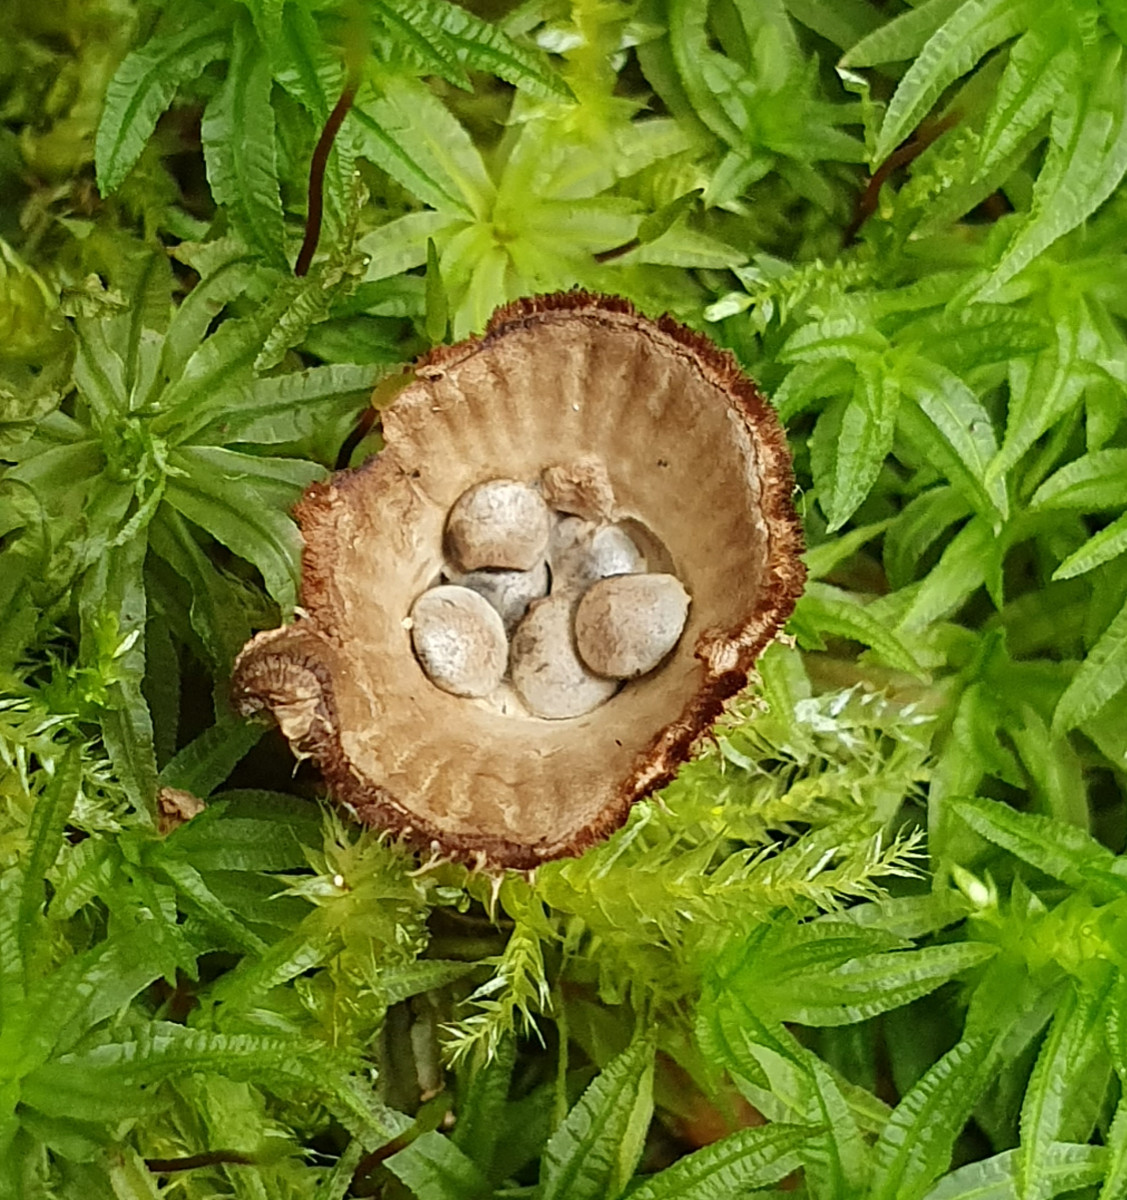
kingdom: Fungi
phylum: Basidiomycota
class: Agaricomycetes
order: Agaricales
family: Agaricaceae
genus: Cyathus
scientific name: Cyathus striatus
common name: stribet redesvamp
